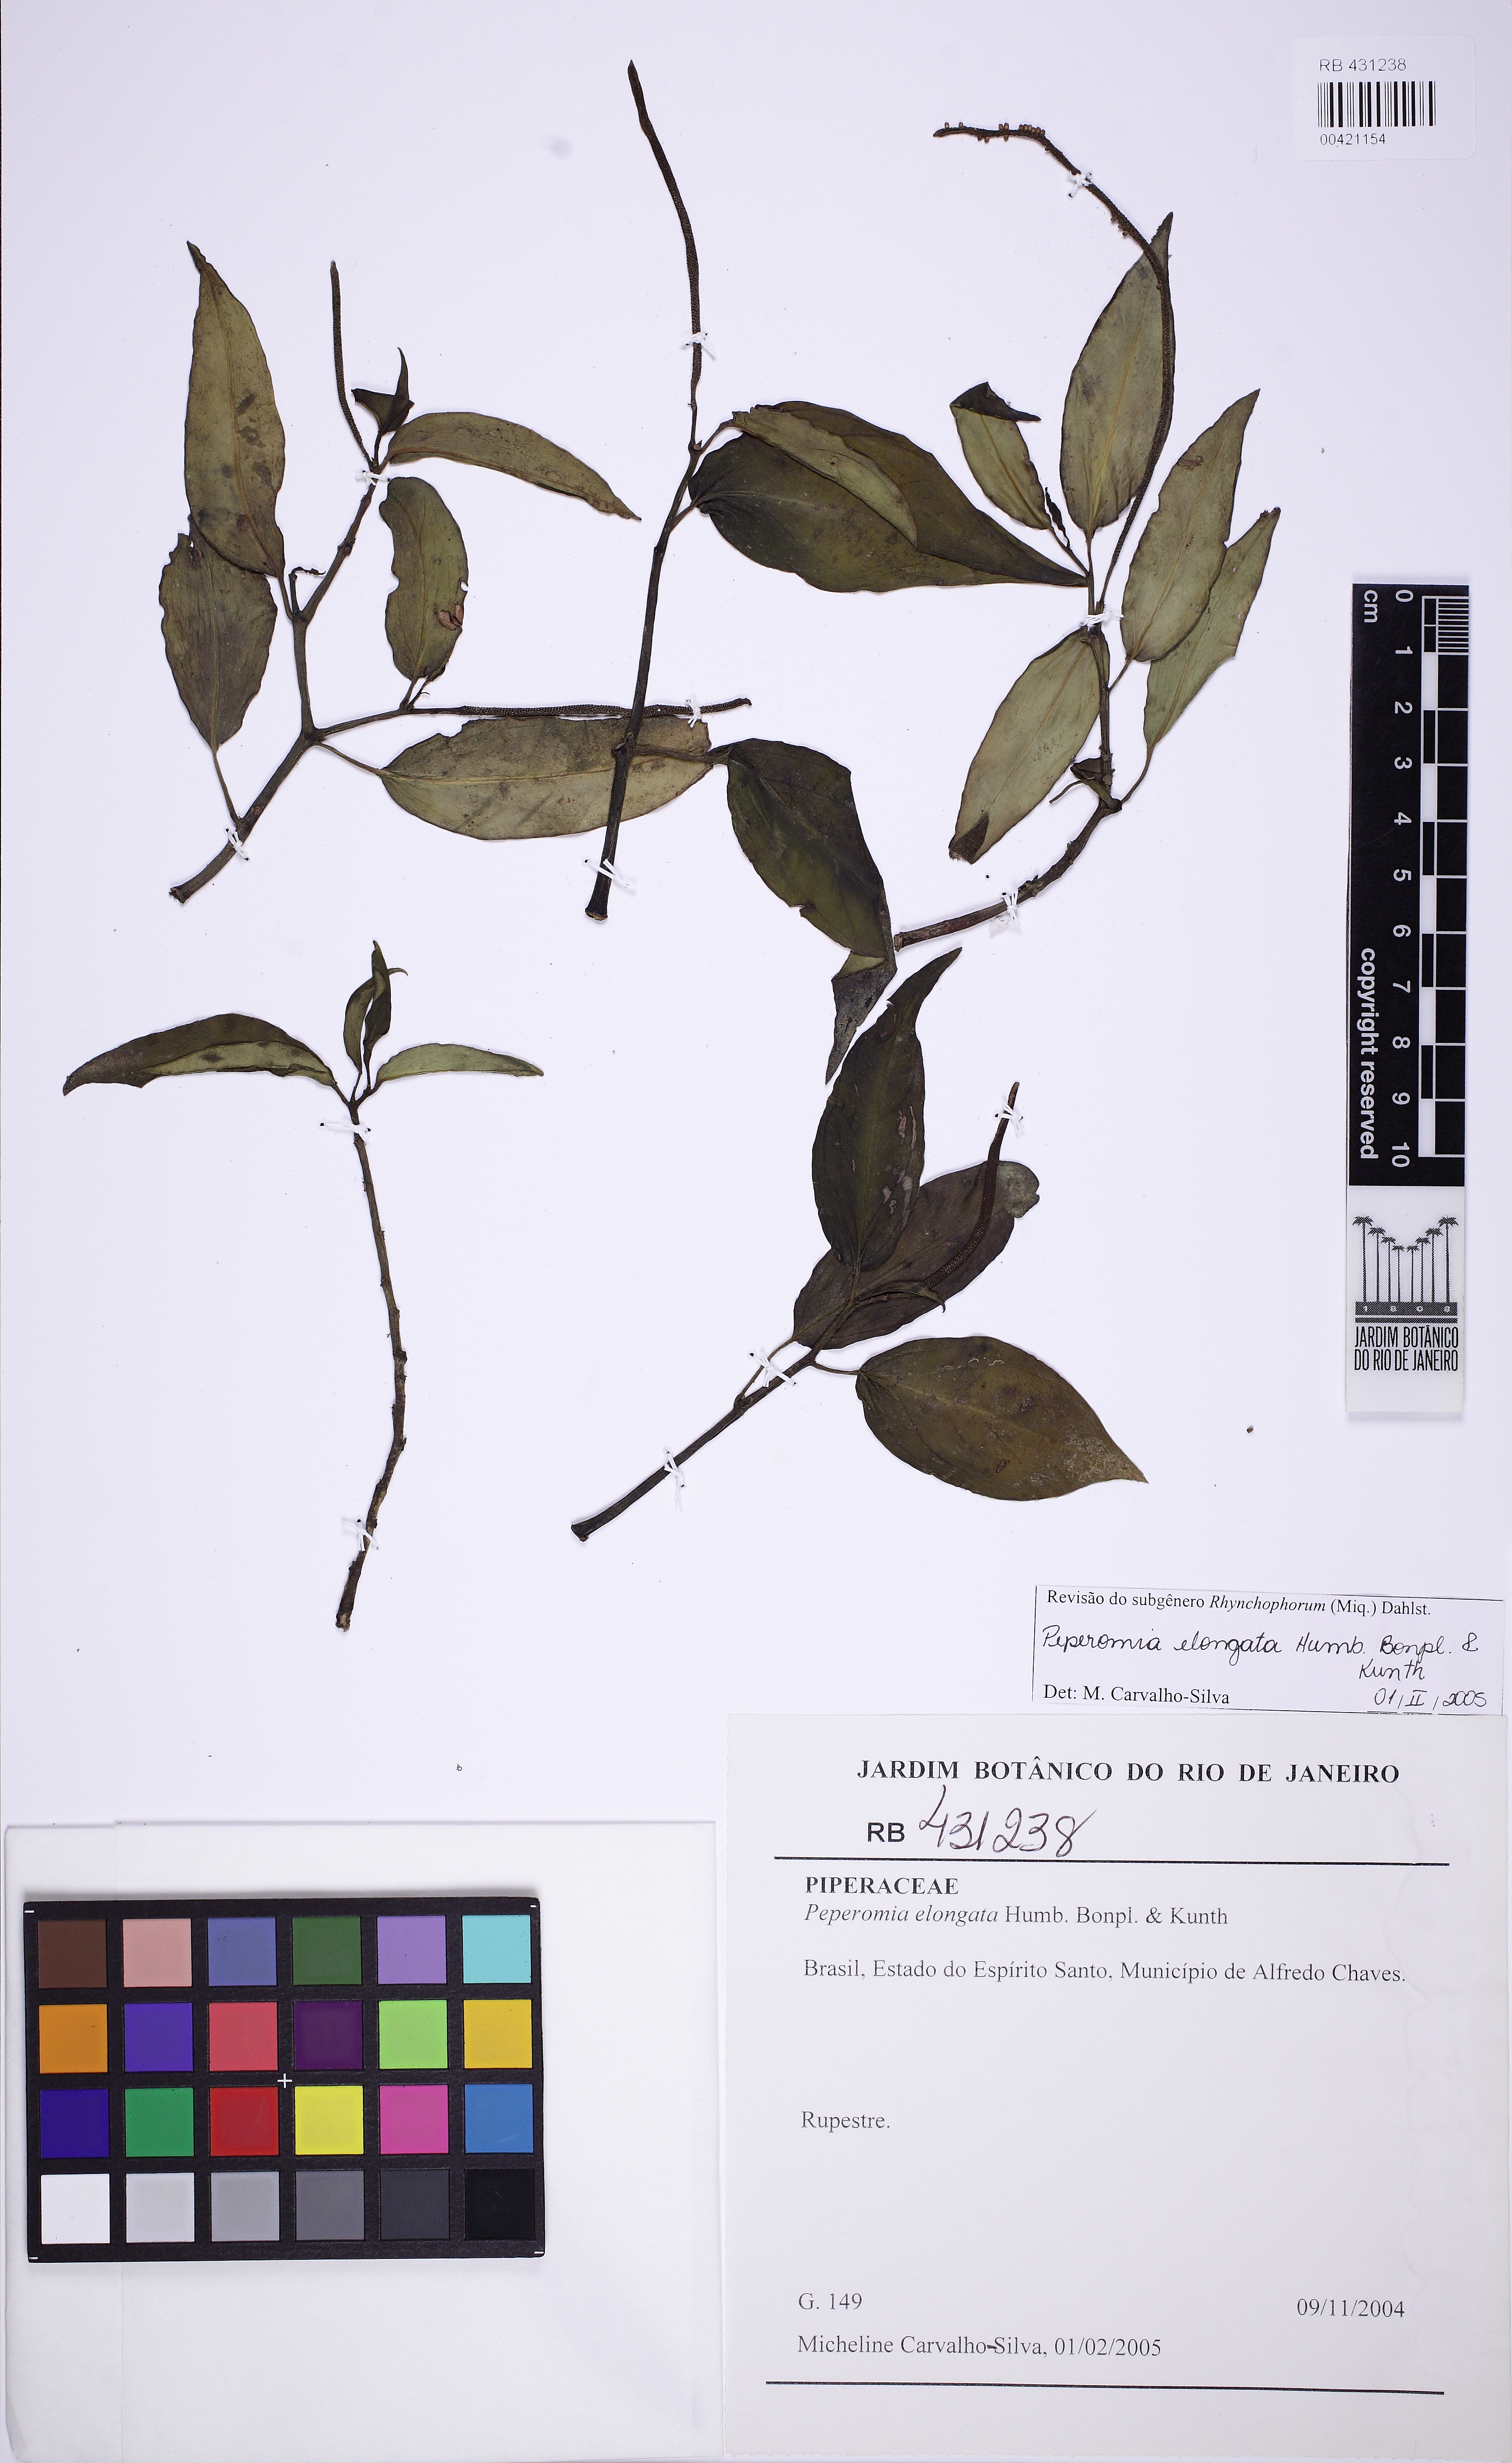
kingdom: Plantae
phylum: Tracheophyta
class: Magnoliopsida
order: Piperales
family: Piperaceae
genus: Peperomia
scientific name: Peperomia elongata
